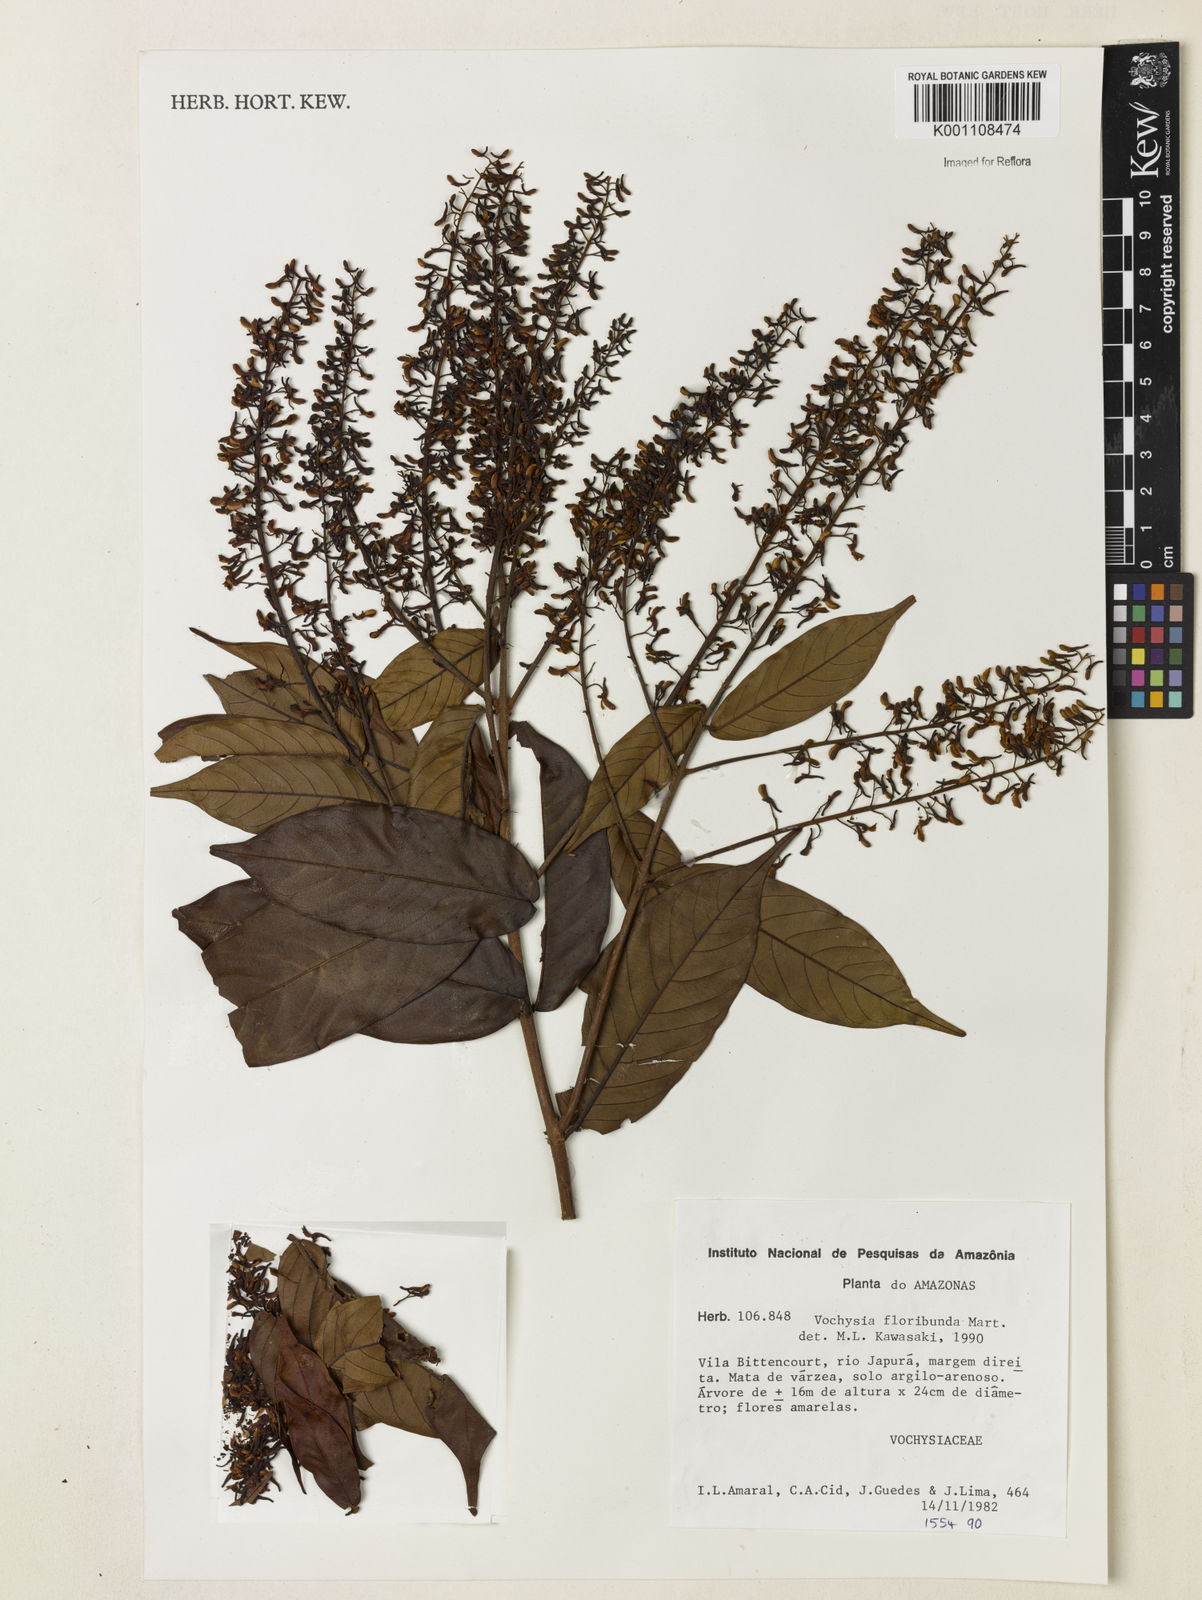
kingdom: Plantae
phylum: Tracheophyta
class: Magnoliopsida
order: Myrtales
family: Vochysiaceae
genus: Vochysia
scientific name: Vochysia floribunda
